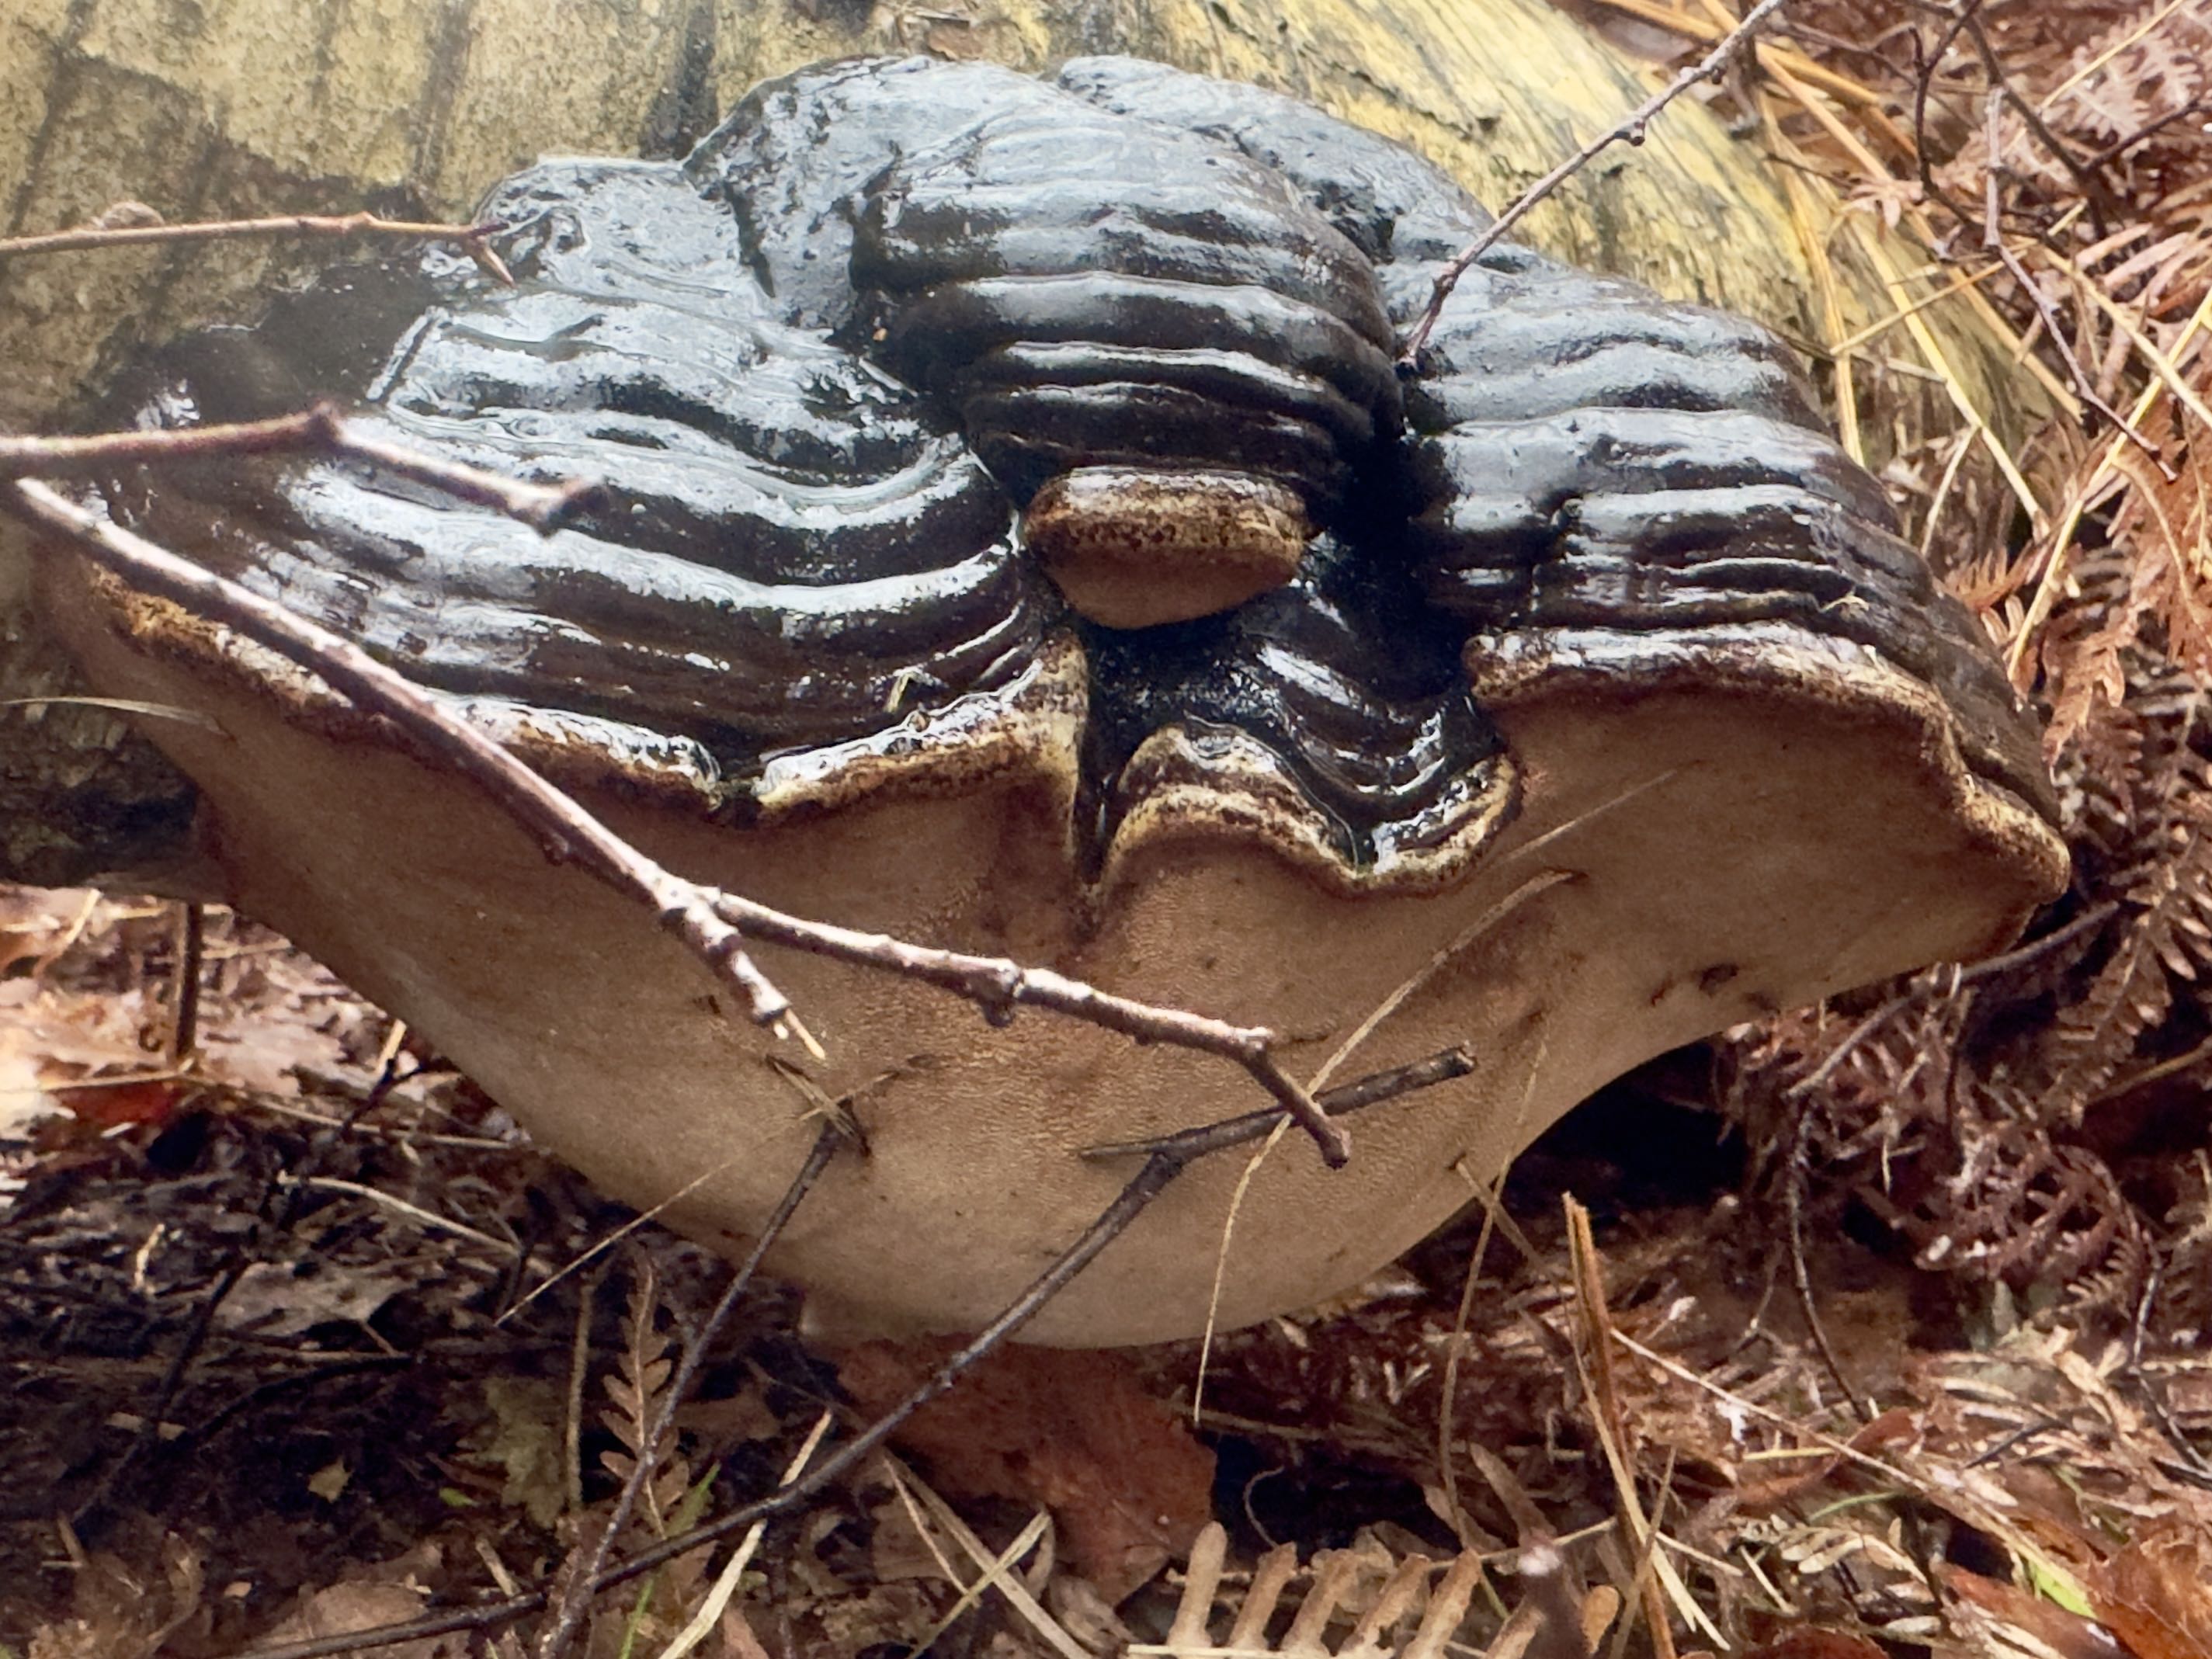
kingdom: Fungi
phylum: Basidiomycota
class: Agaricomycetes
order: Polyporales
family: Polyporaceae
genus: Fomes
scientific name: Fomes fomentarius
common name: tøndersvamp
